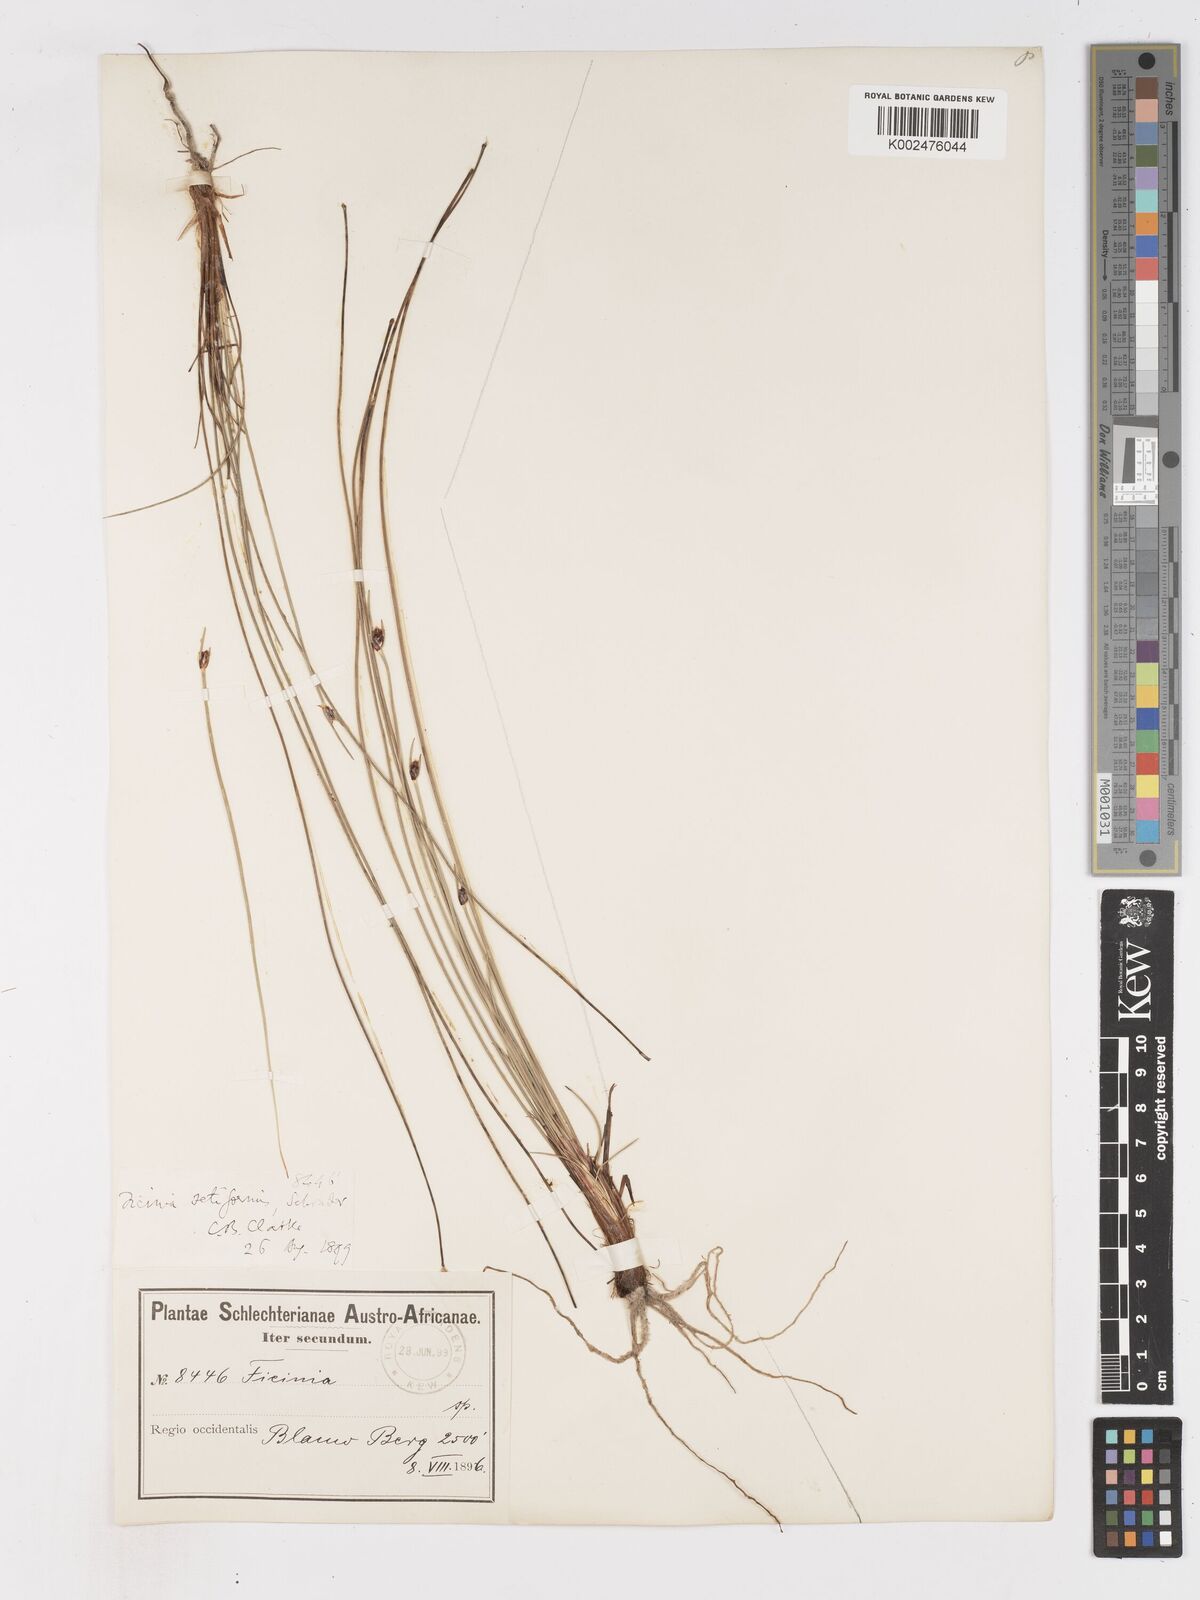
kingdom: Plantae
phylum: Tracheophyta
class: Liliopsida
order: Poales
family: Cyperaceae
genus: Ficinia
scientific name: Ficinia indica
